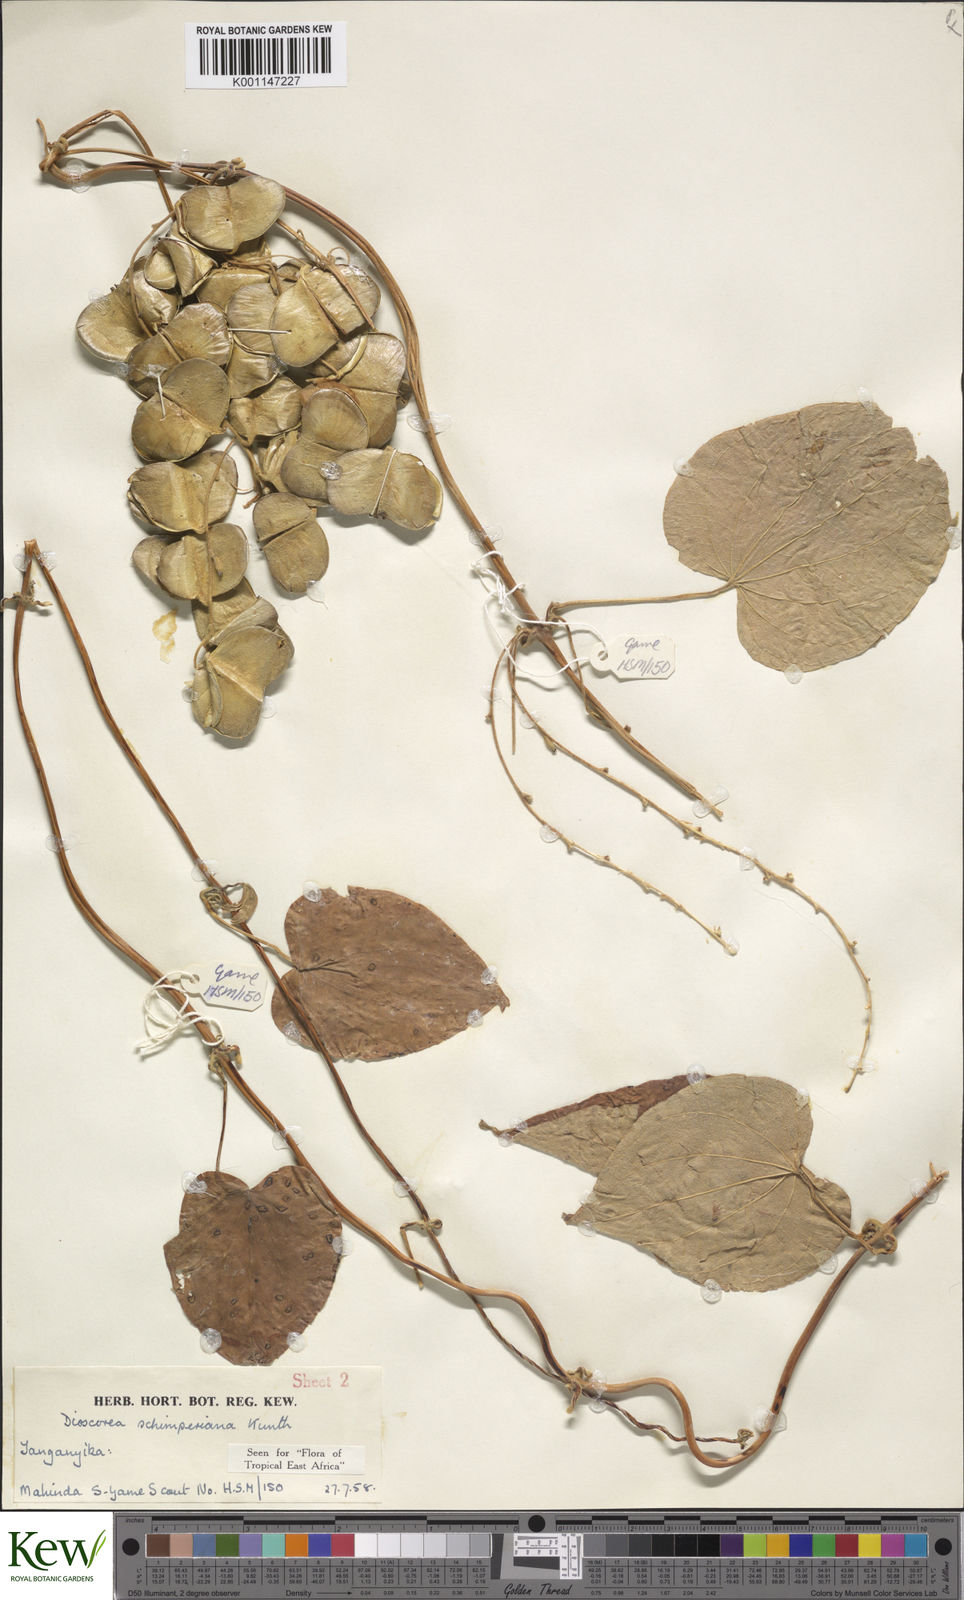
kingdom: Plantae
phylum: Tracheophyta
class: Liliopsida
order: Dioscoreales
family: Dioscoreaceae
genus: Dioscorea
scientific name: Dioscorea schimperiana
